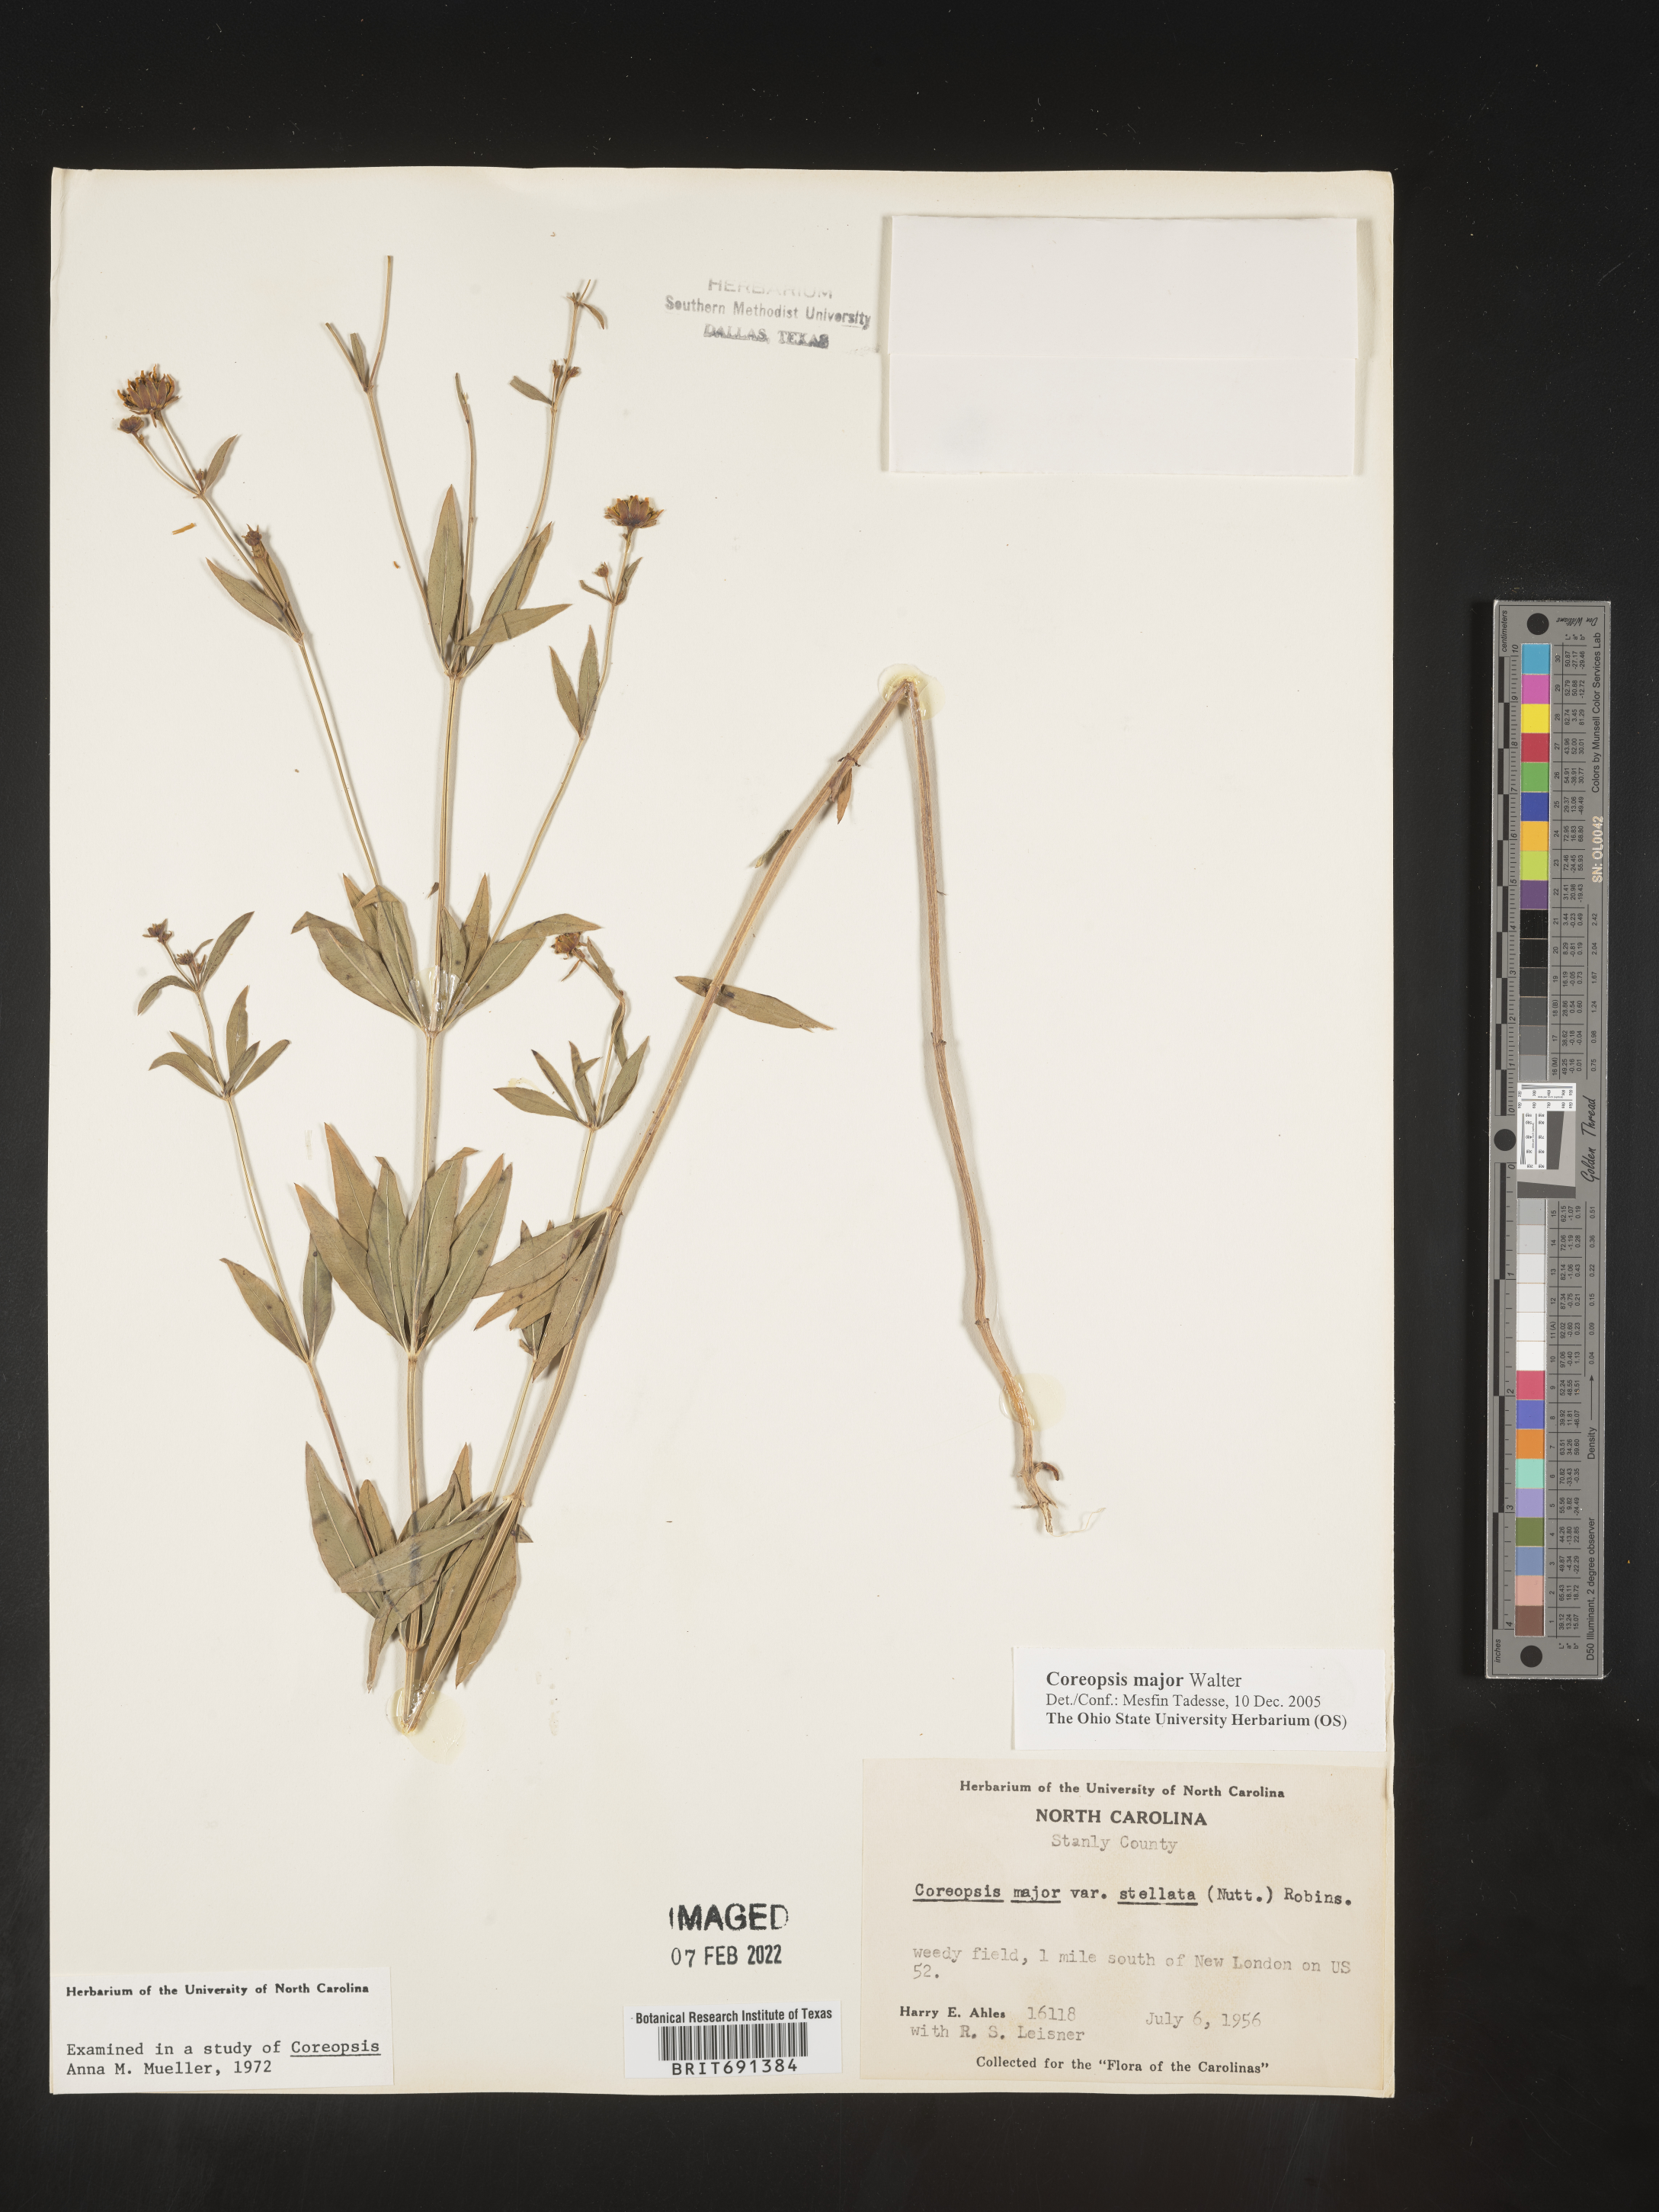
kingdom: Plantae
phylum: Tracheophyta
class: Magnoliopsida
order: Asterales
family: Asteraceae
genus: Coreopsis
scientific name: Coreopsis major
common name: Forest tickseed
